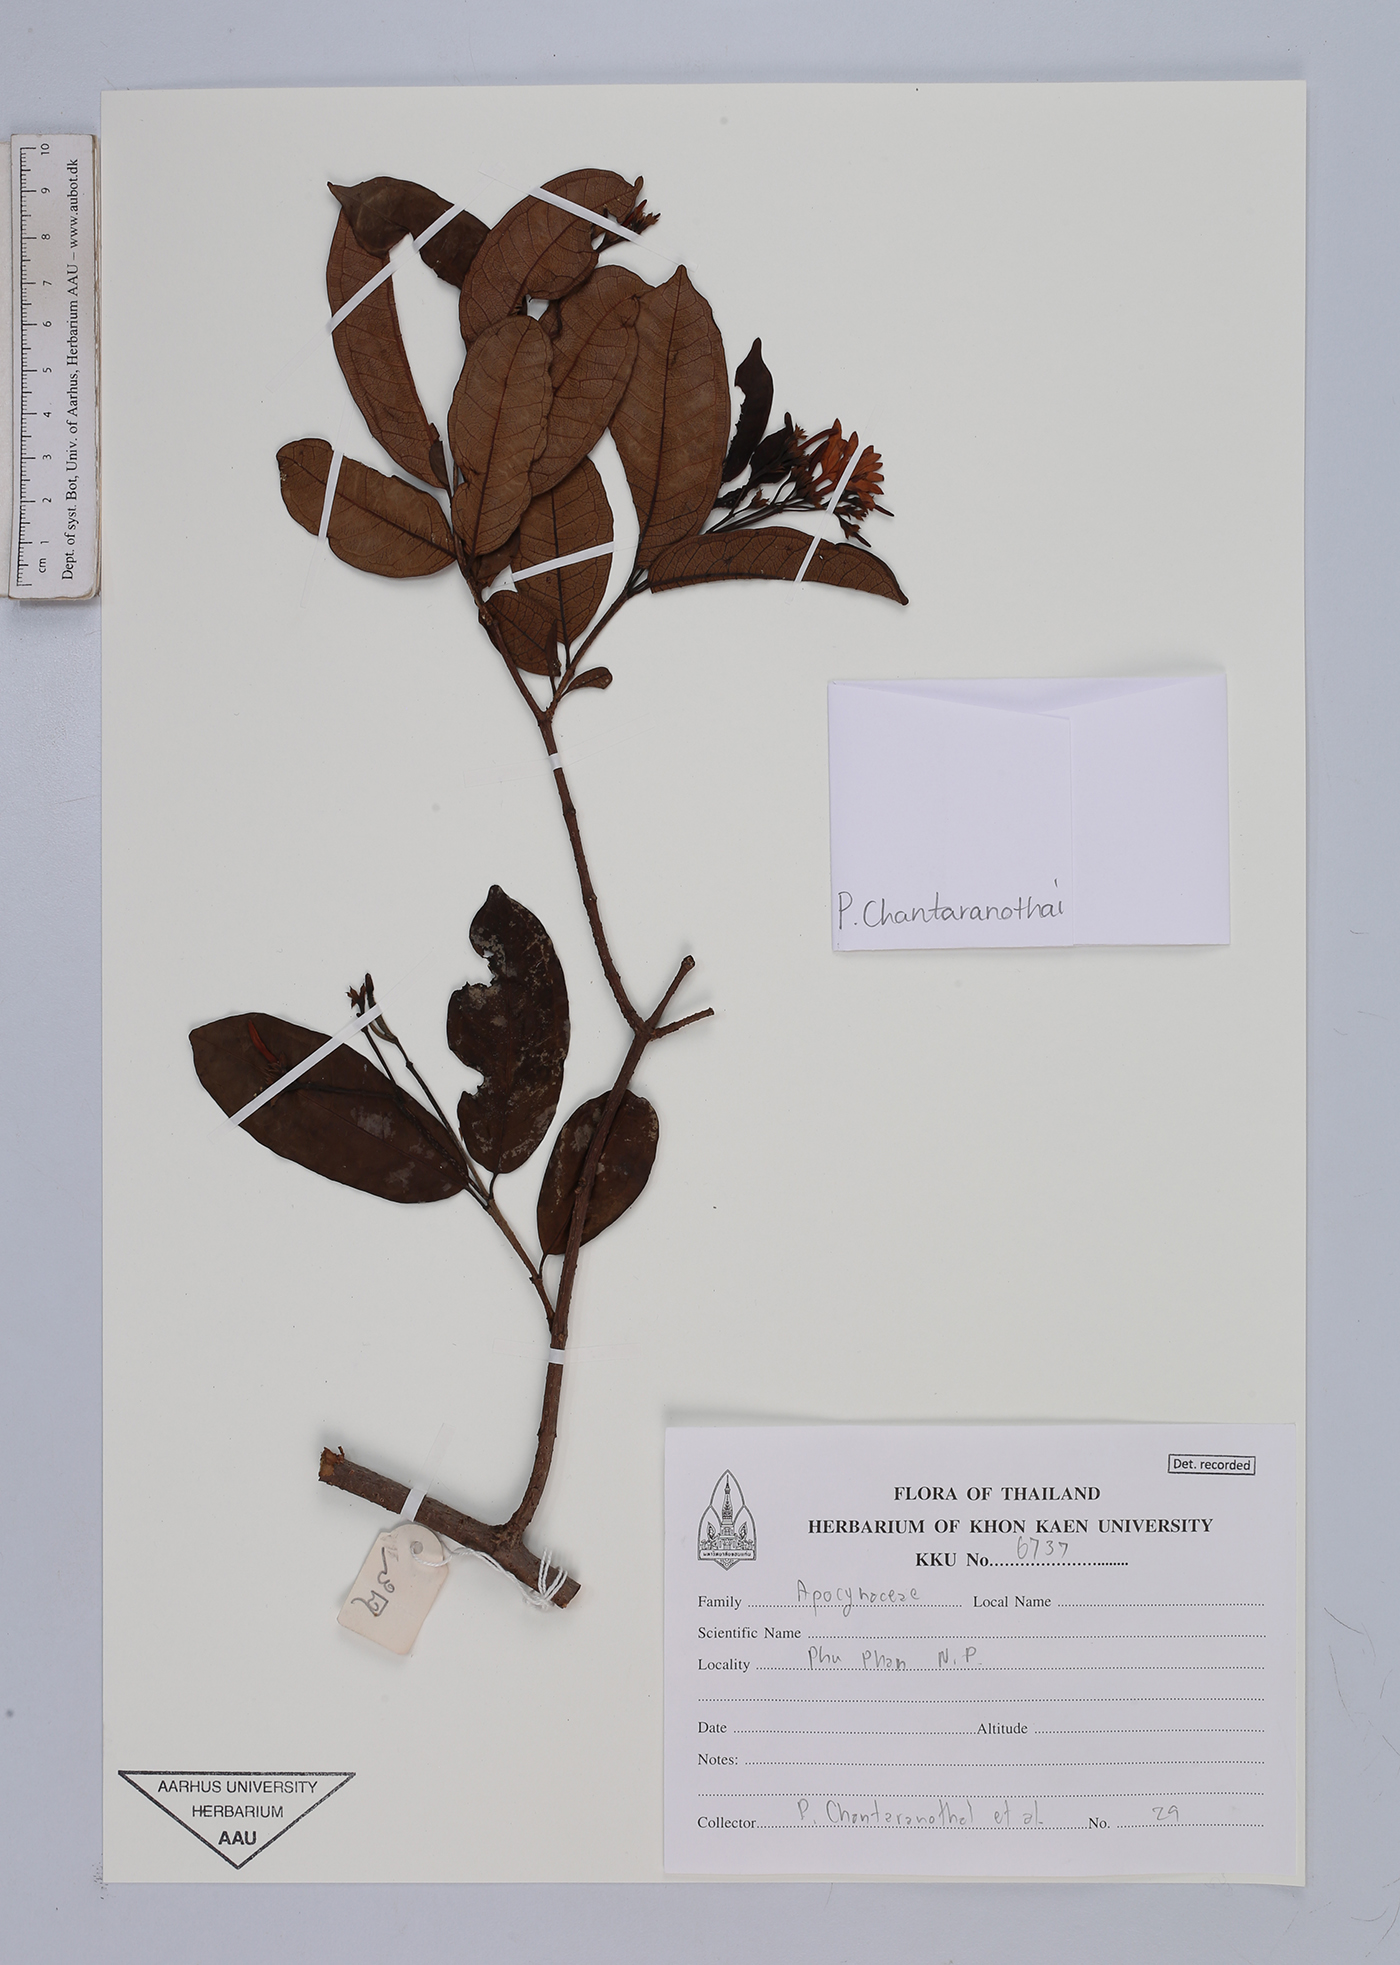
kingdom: Plantae
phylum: Tracheophyta
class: Magnoliopsida
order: Gentianales
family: Apocynaceae
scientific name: Apocynaceae
